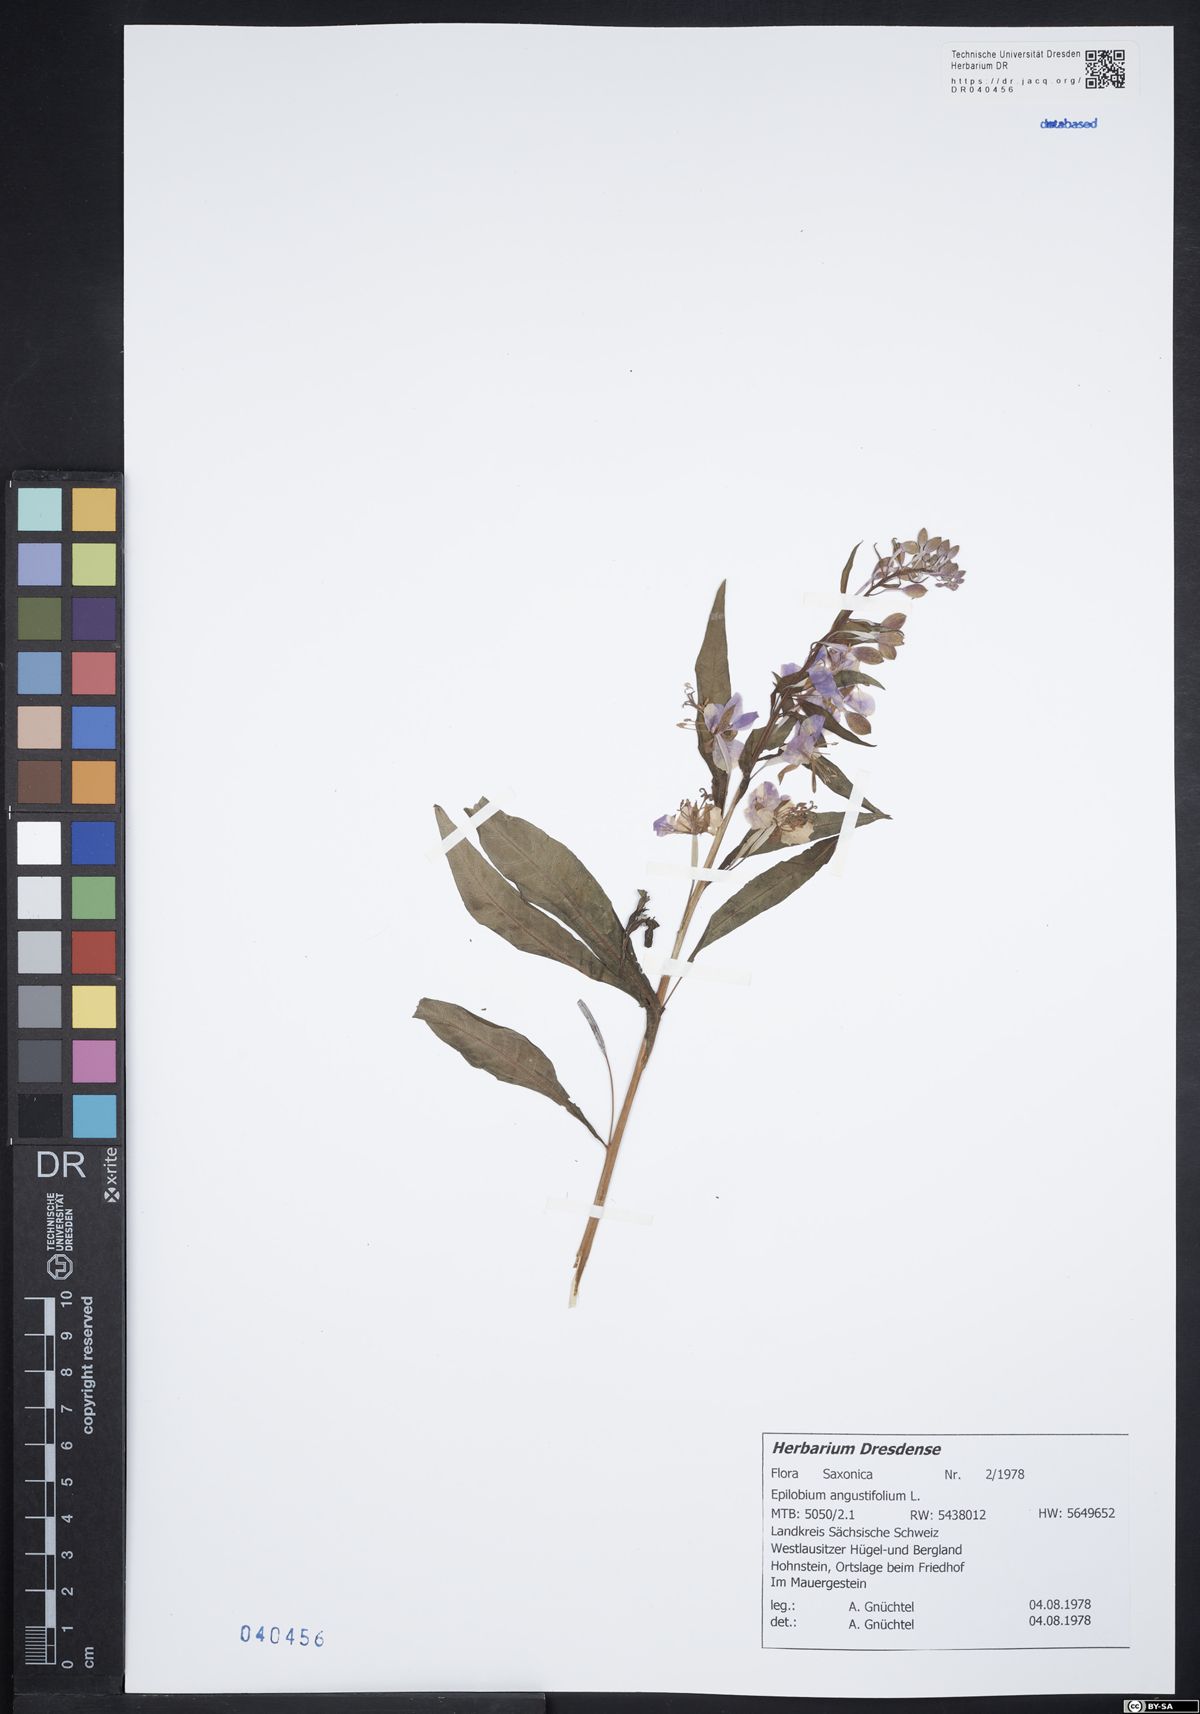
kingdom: Plantae
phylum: Tracheophyta
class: Magnoliopsida
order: Myrtales
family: Onagraceae
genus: Chamaenerion
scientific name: Chamaenerion angustifolium
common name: Fireweed
